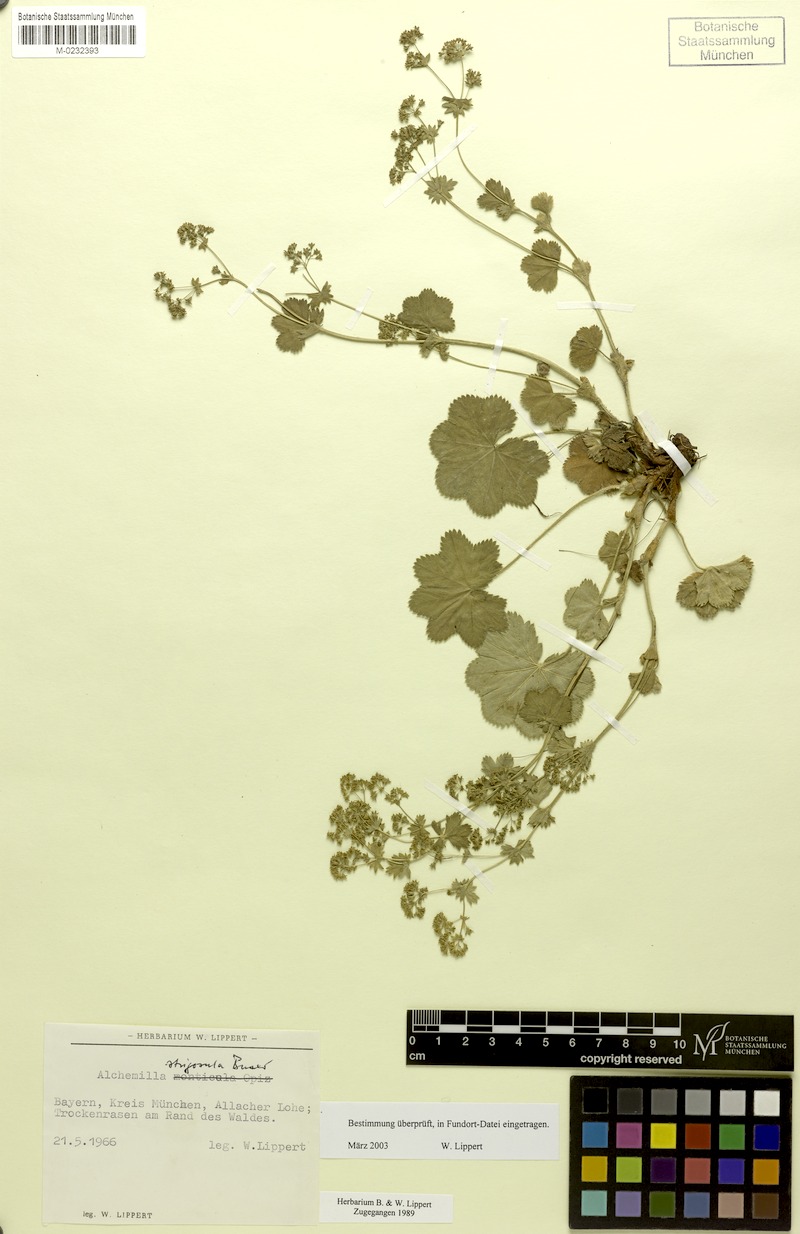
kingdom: Plantae
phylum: Tracheophyta
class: Magnoliopsida
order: Rosales
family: Rosaceae
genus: Alchemilla
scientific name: Alchemilla strigosula
